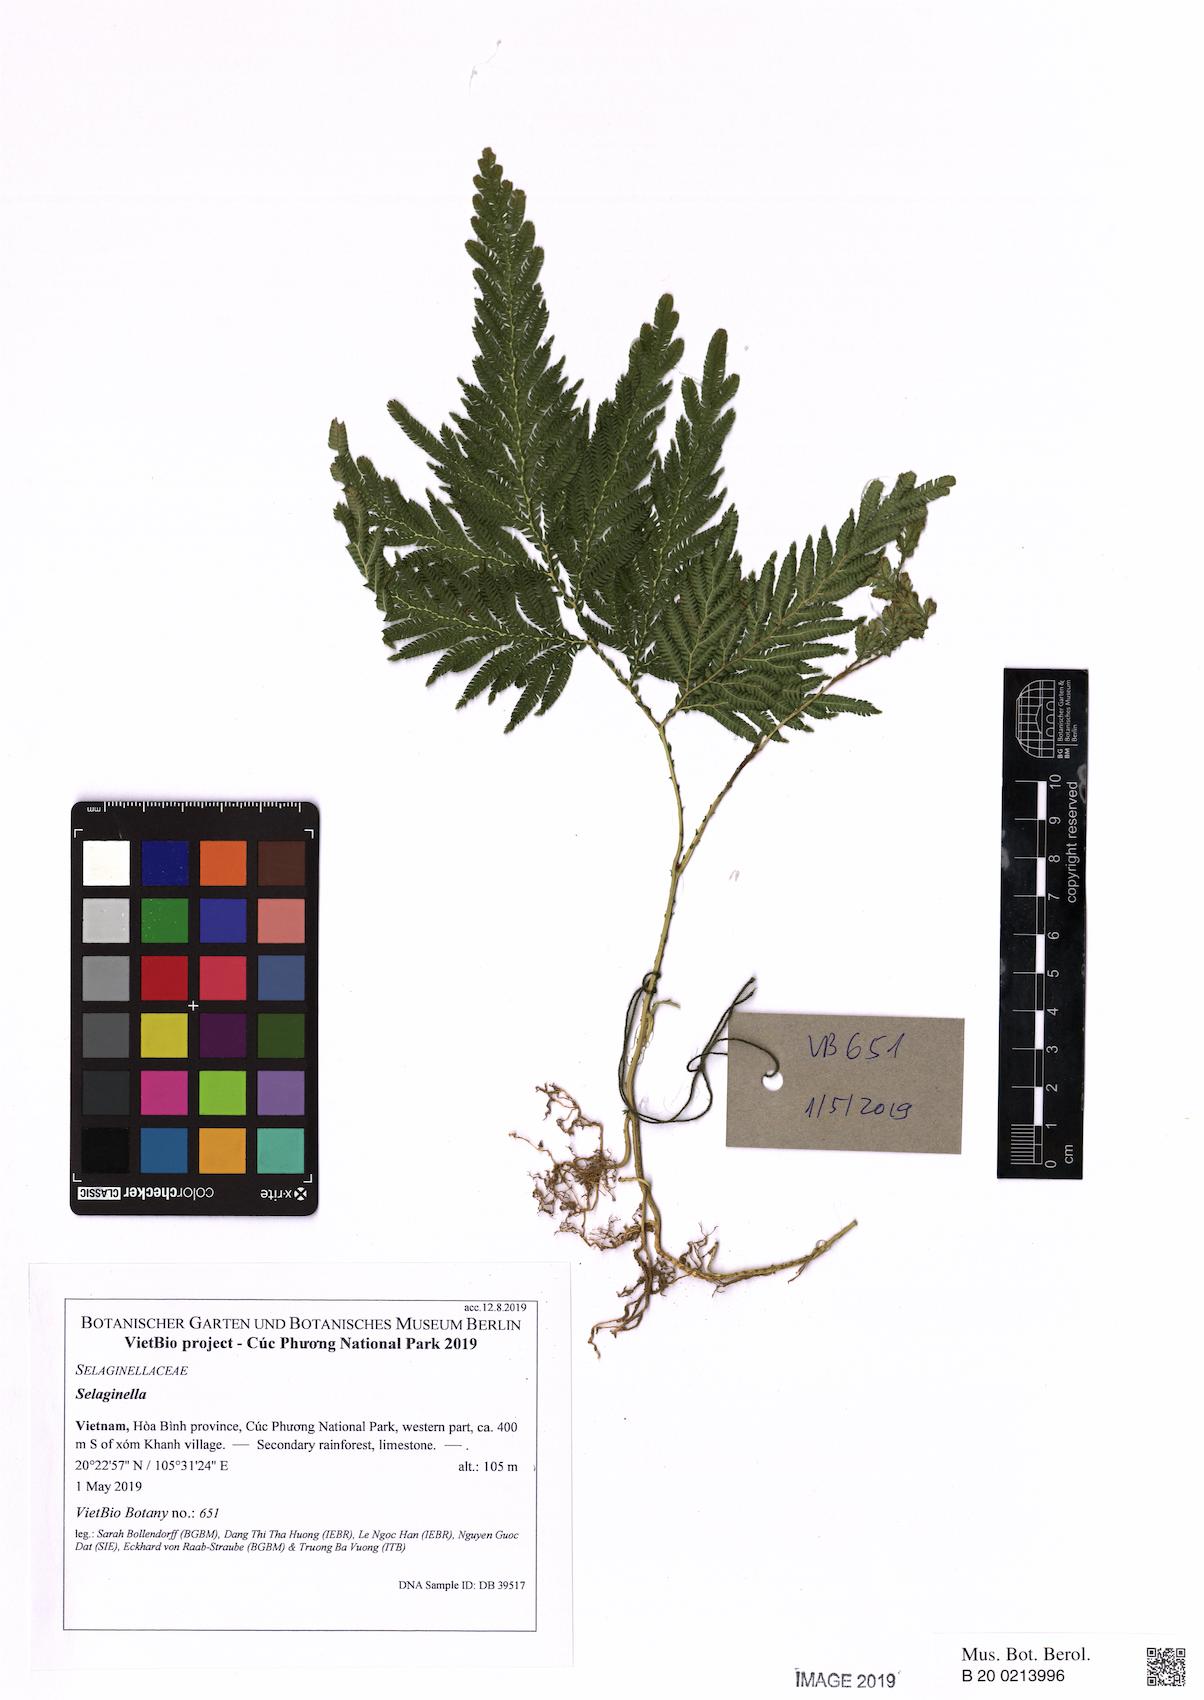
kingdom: Plantae
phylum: Tracheophyta
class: Lycopodiopsida
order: Selaginellales
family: Selaginellaceae
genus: Selaginella
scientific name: Selaginella
